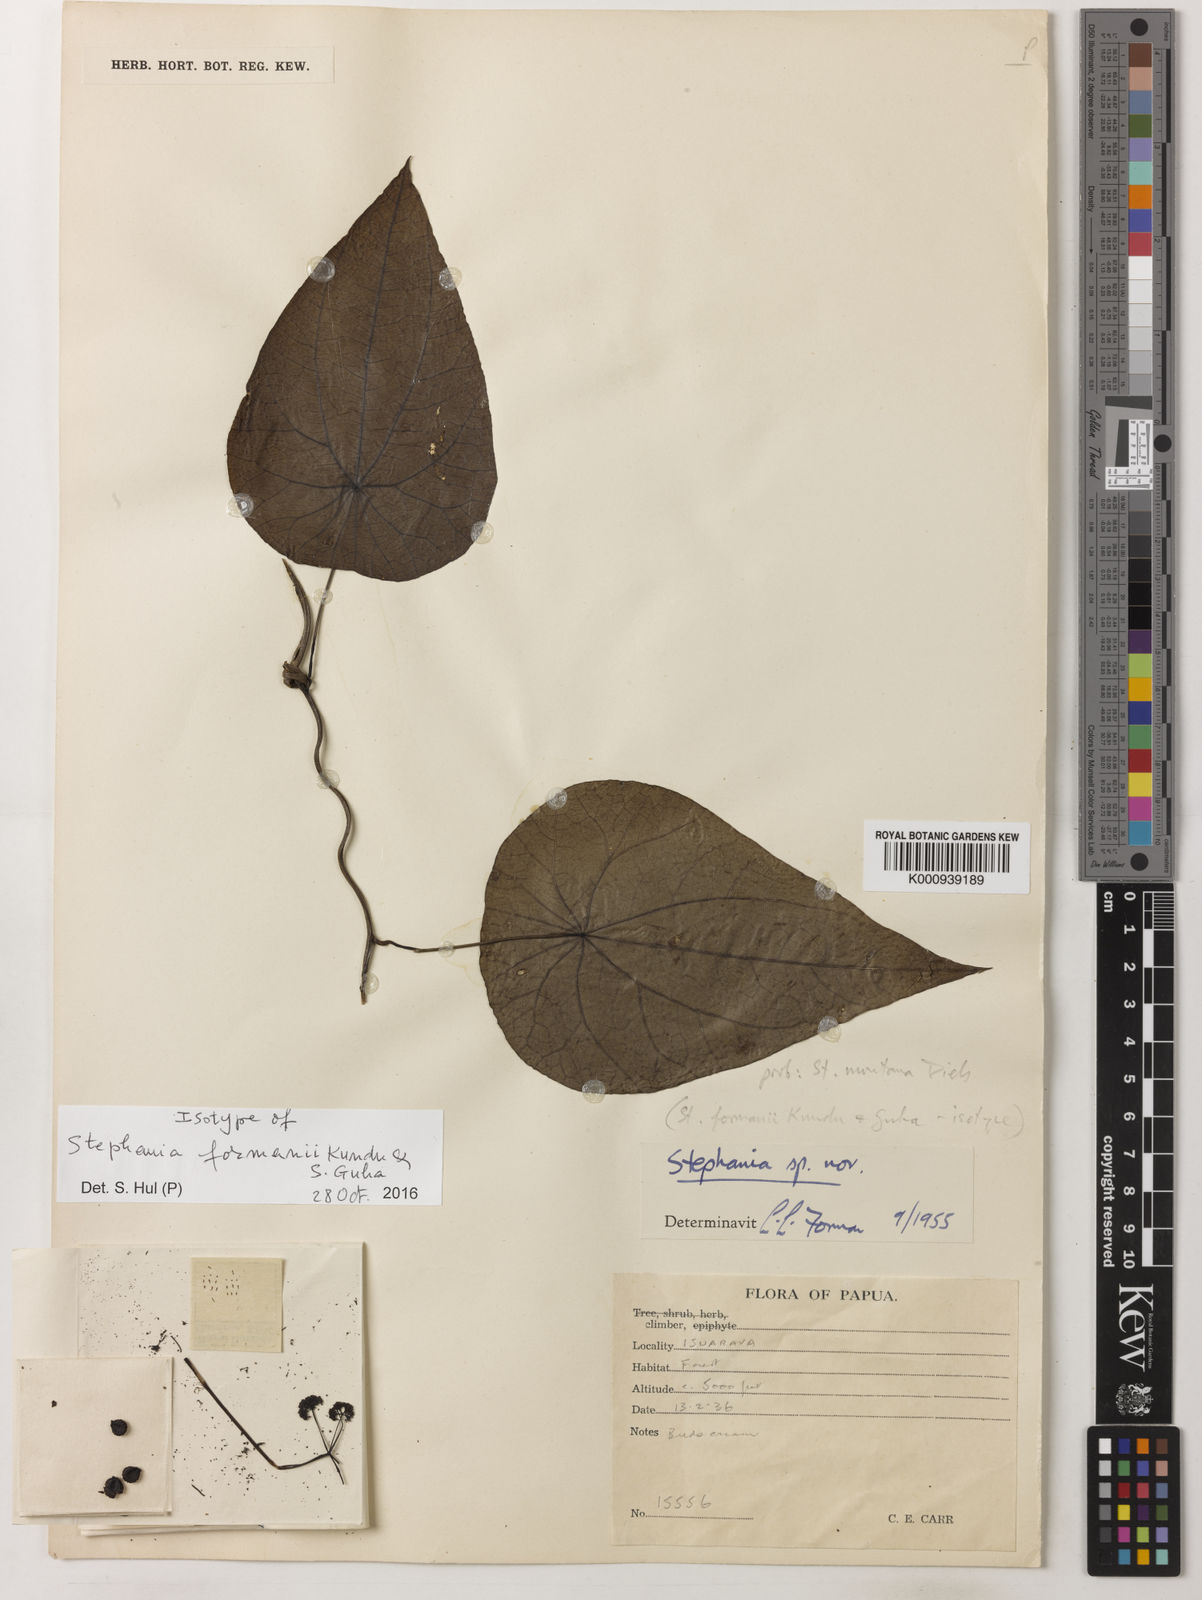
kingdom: Plantae
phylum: Tracheophyta
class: Magnoliopsida
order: Ranunculales
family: Menispermaceae
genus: Stephania
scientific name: Stephania formanii
